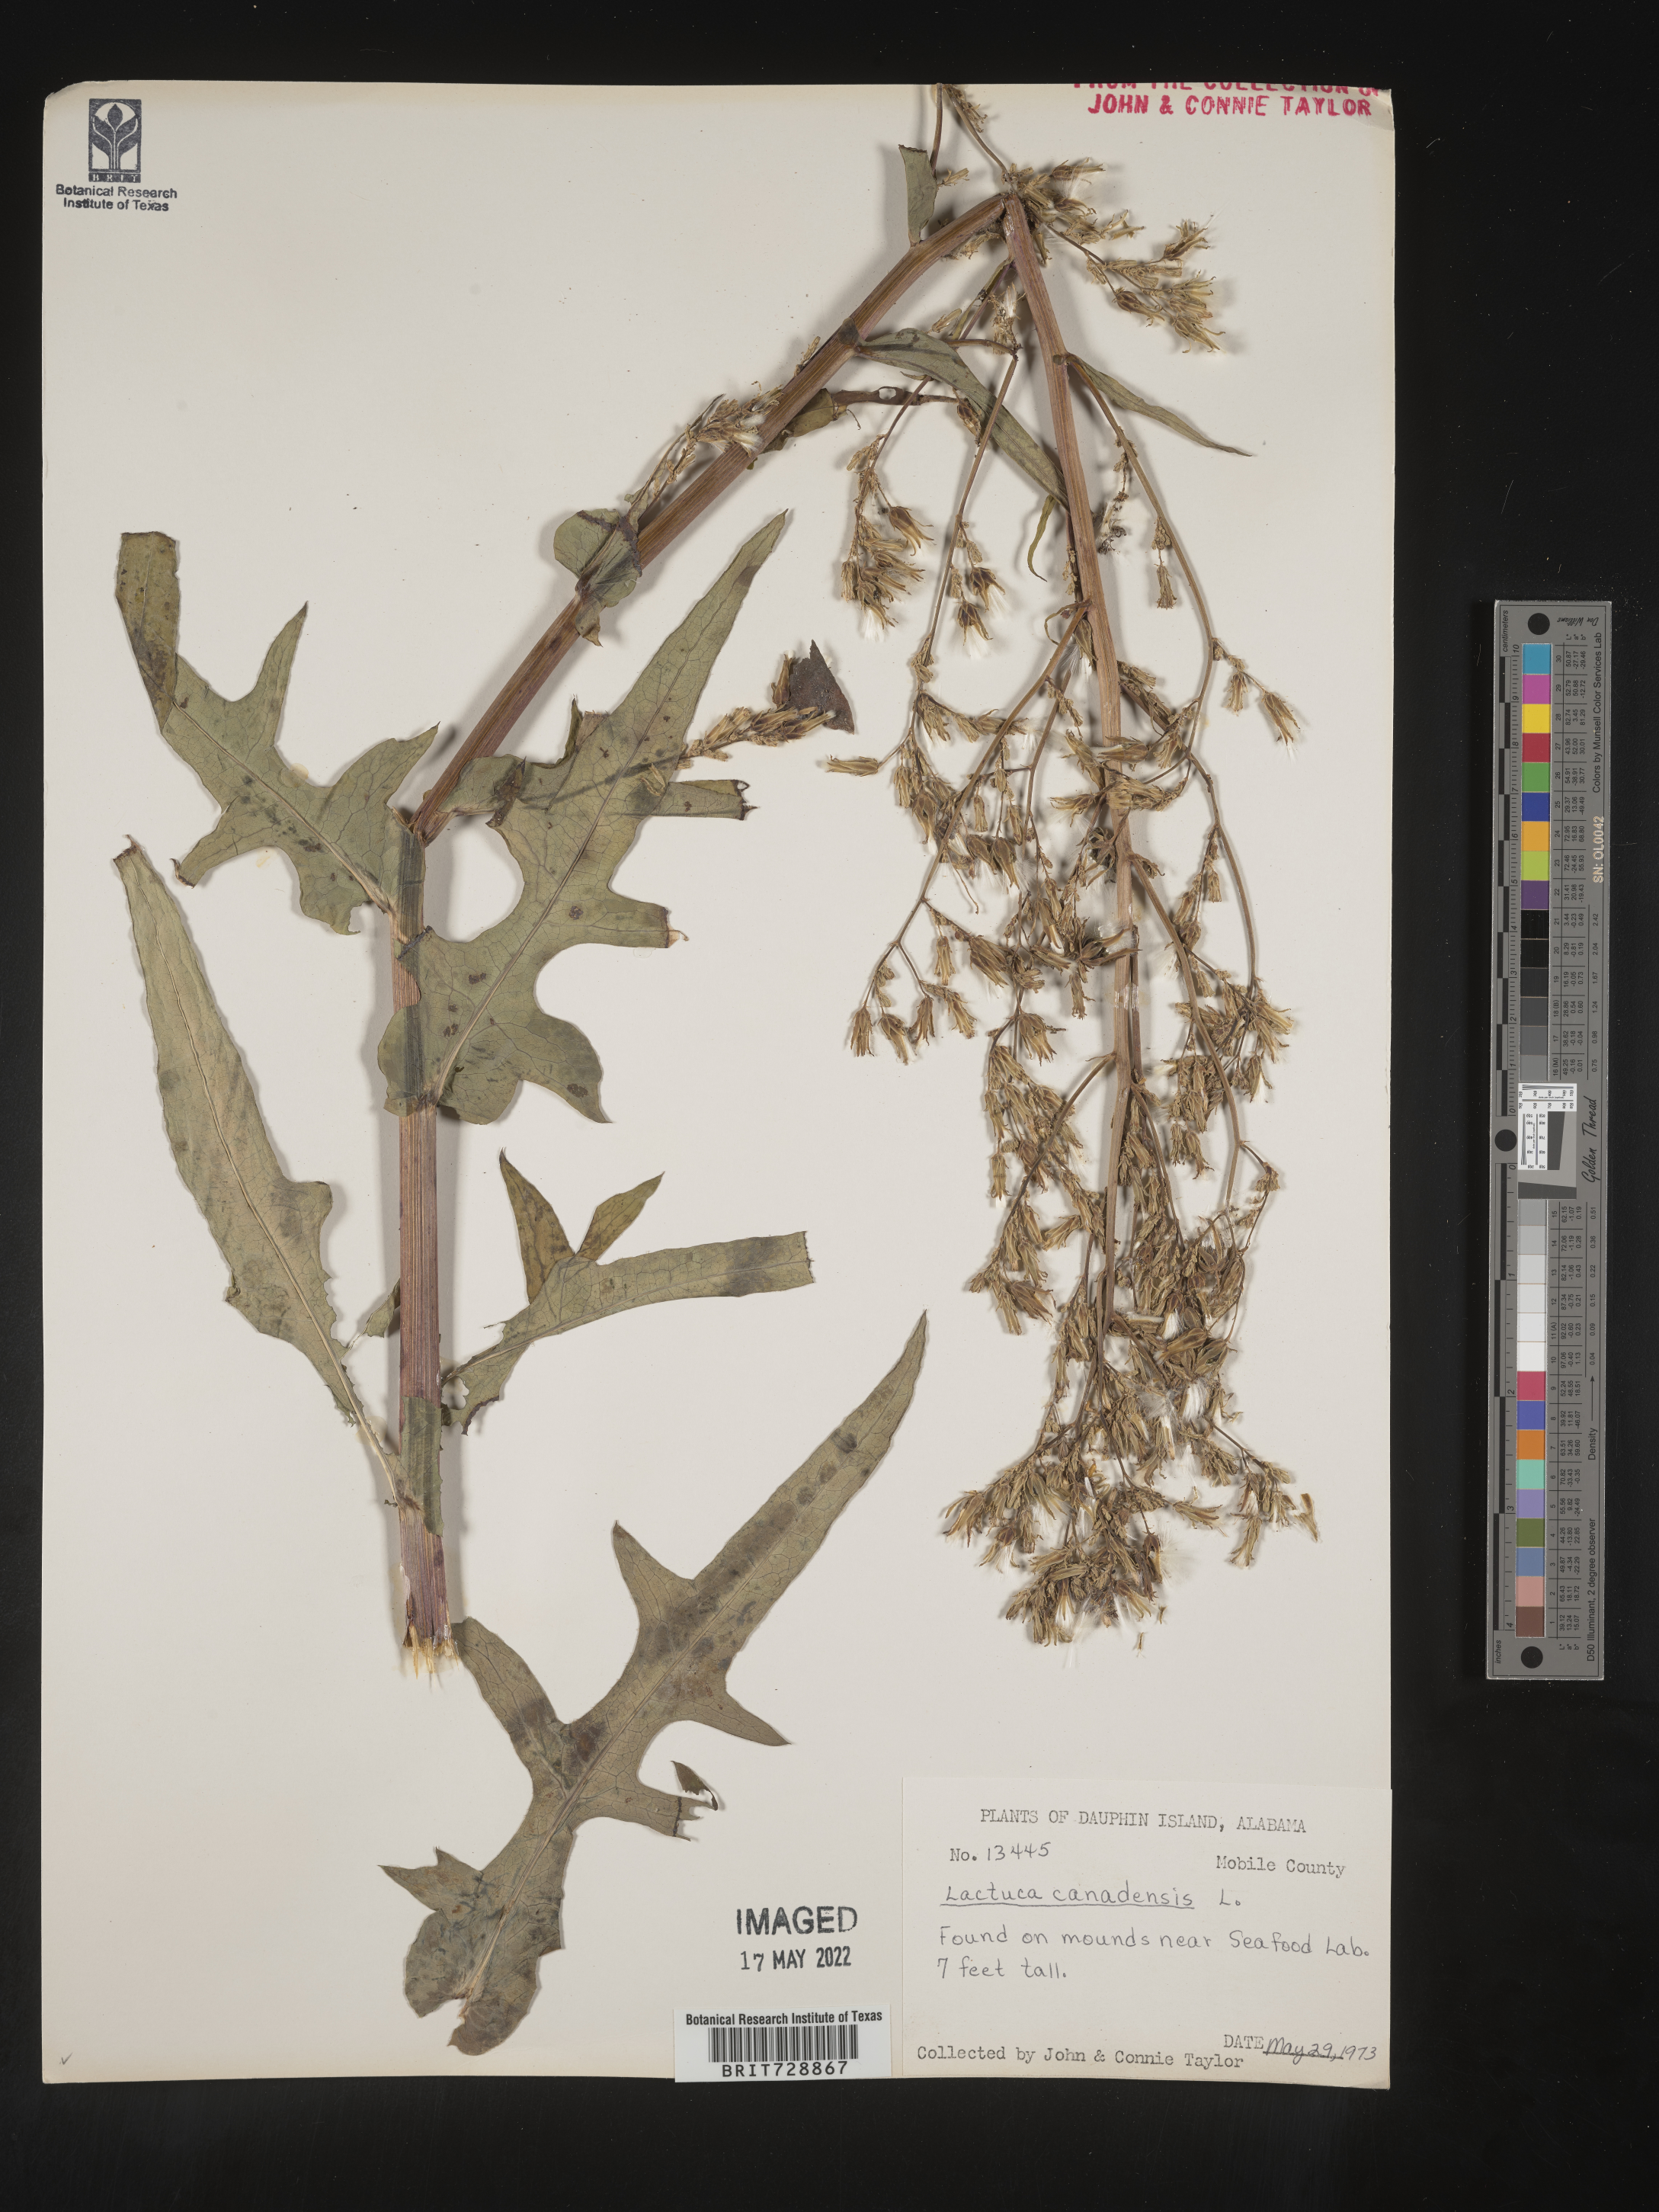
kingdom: Plantae
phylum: Tracheophyta
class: Magnoliopsida
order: Asterales
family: Asteraceae
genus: Lactuca
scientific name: Lactuca canadensis
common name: Canada lettuce
